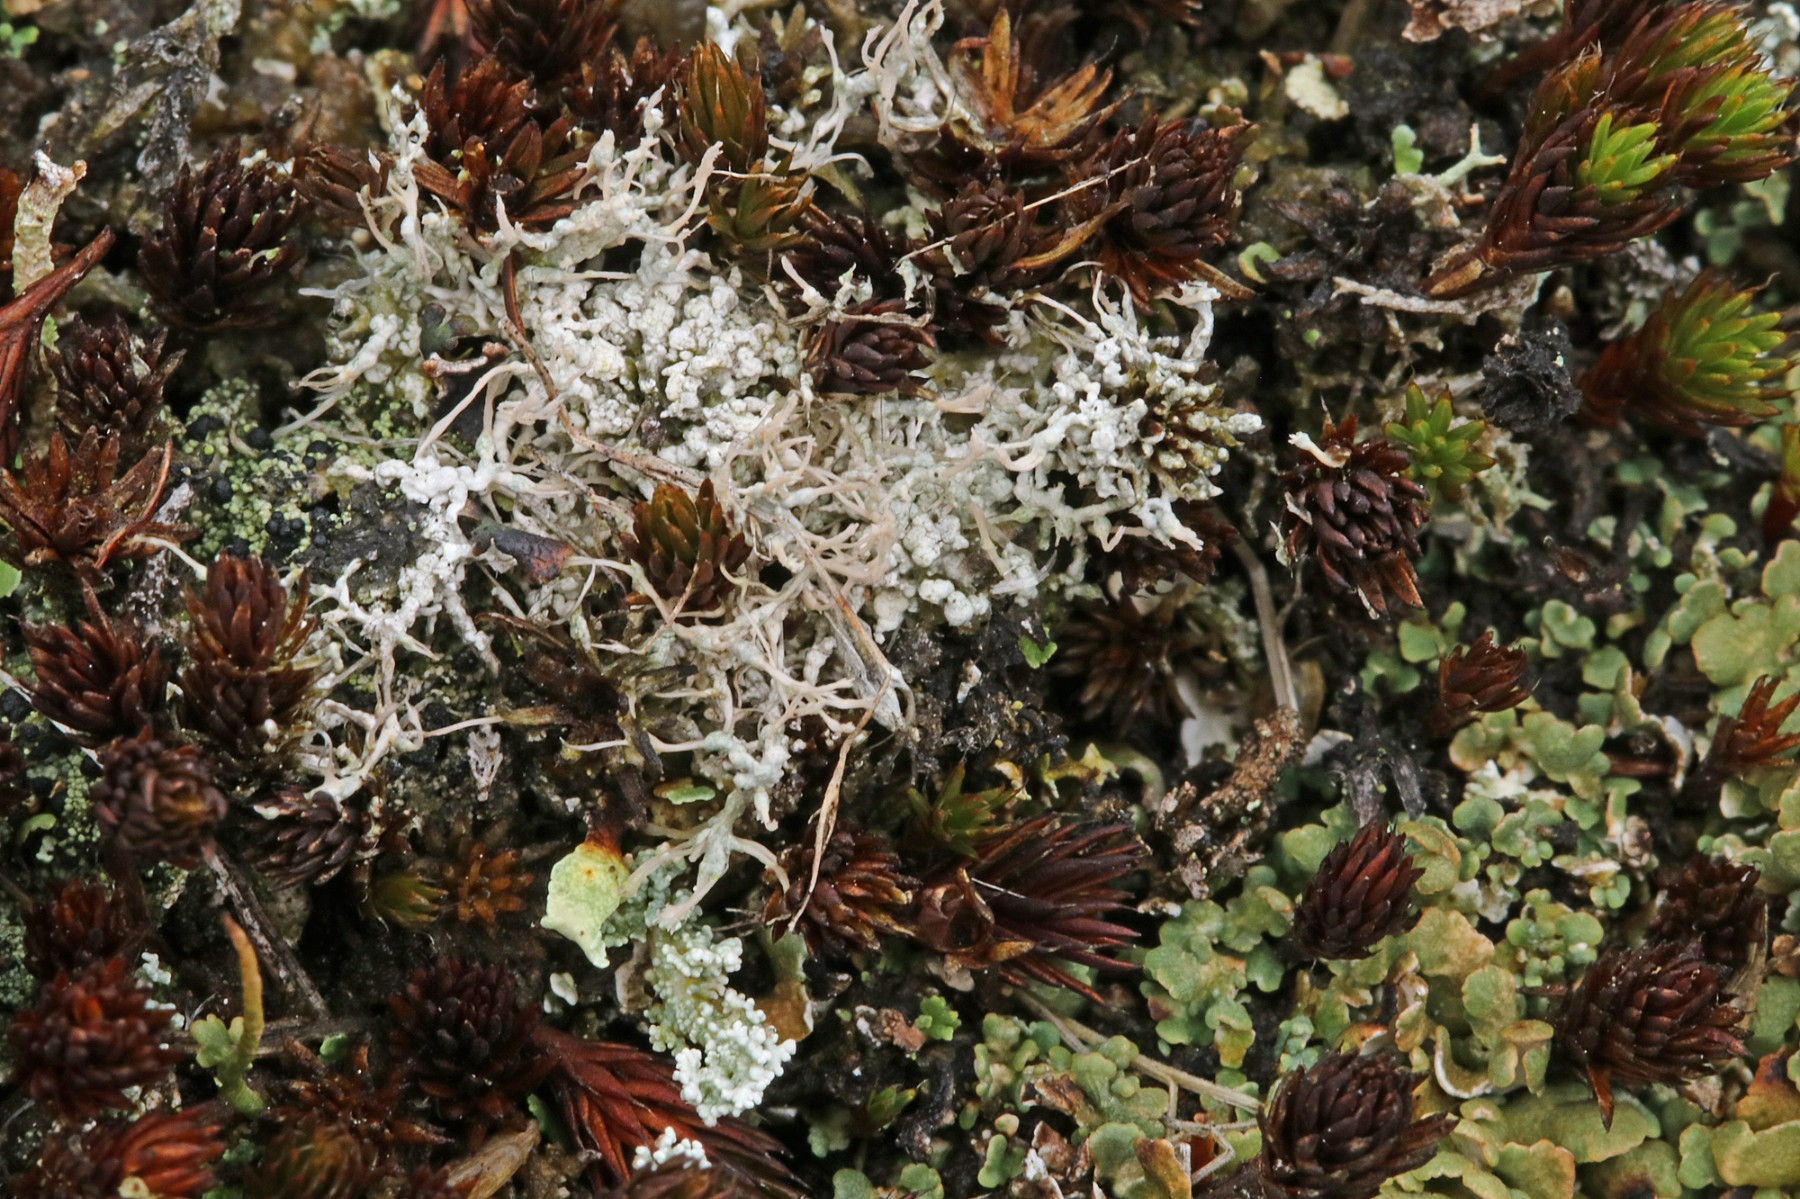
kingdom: Fungi
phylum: Ascomycota
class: Lecanoromycetes
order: Pertusariales
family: Ochrolechiaceae
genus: Ochrolechia
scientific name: Ochrolechia frigida
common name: fjeld-blegskivelav
